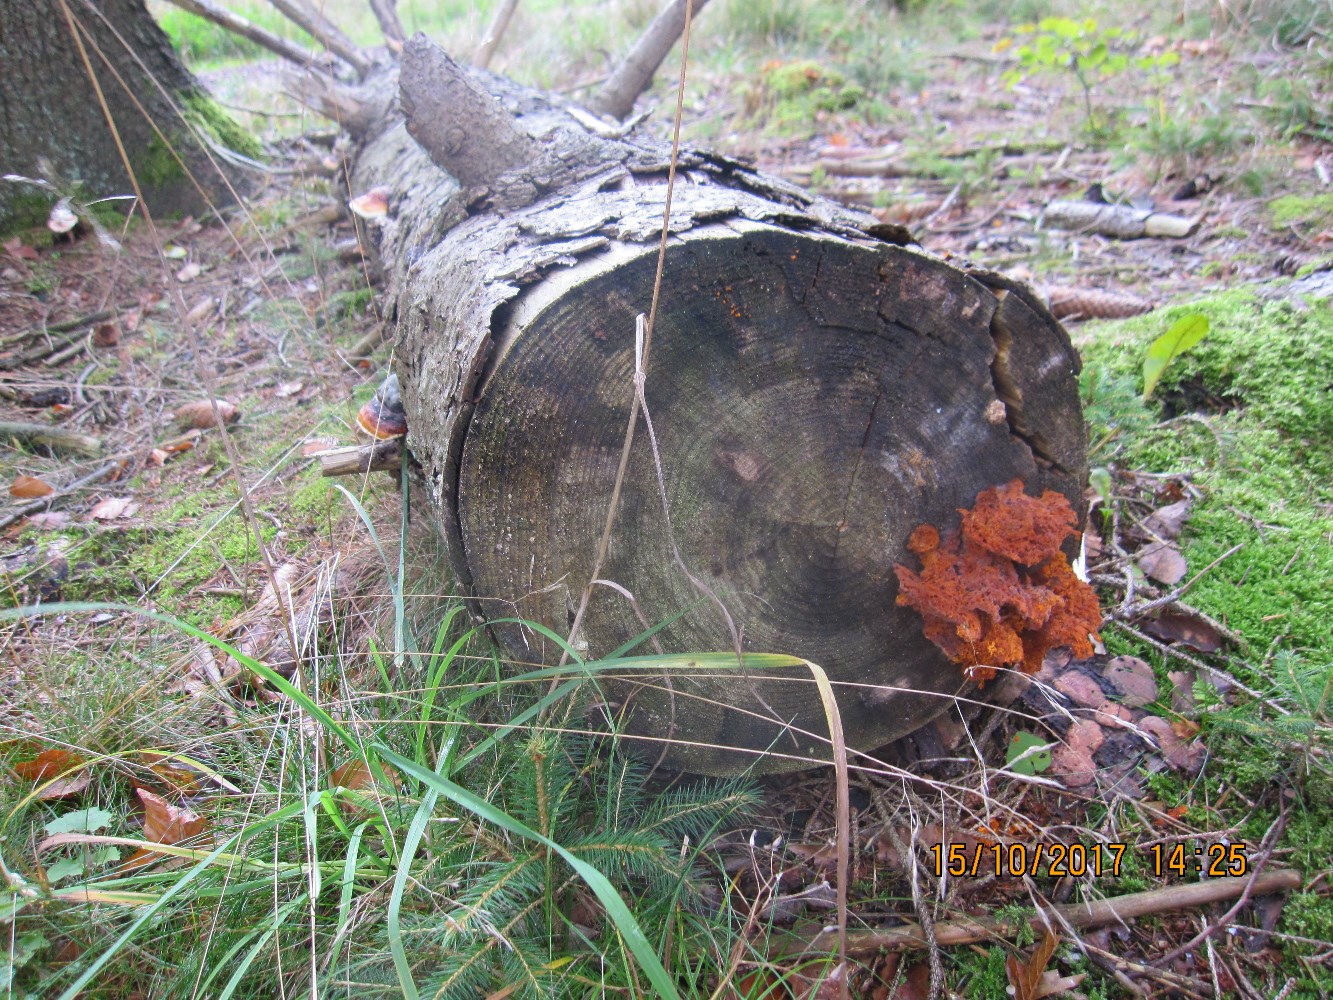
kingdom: Fungi
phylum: Basidiomycota
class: Agaricomycetes
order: Polyporales
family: Pycnoporellaceae
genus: Pycnoporellus
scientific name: Pycnoporellus fulgens
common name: flammeporesvamp
